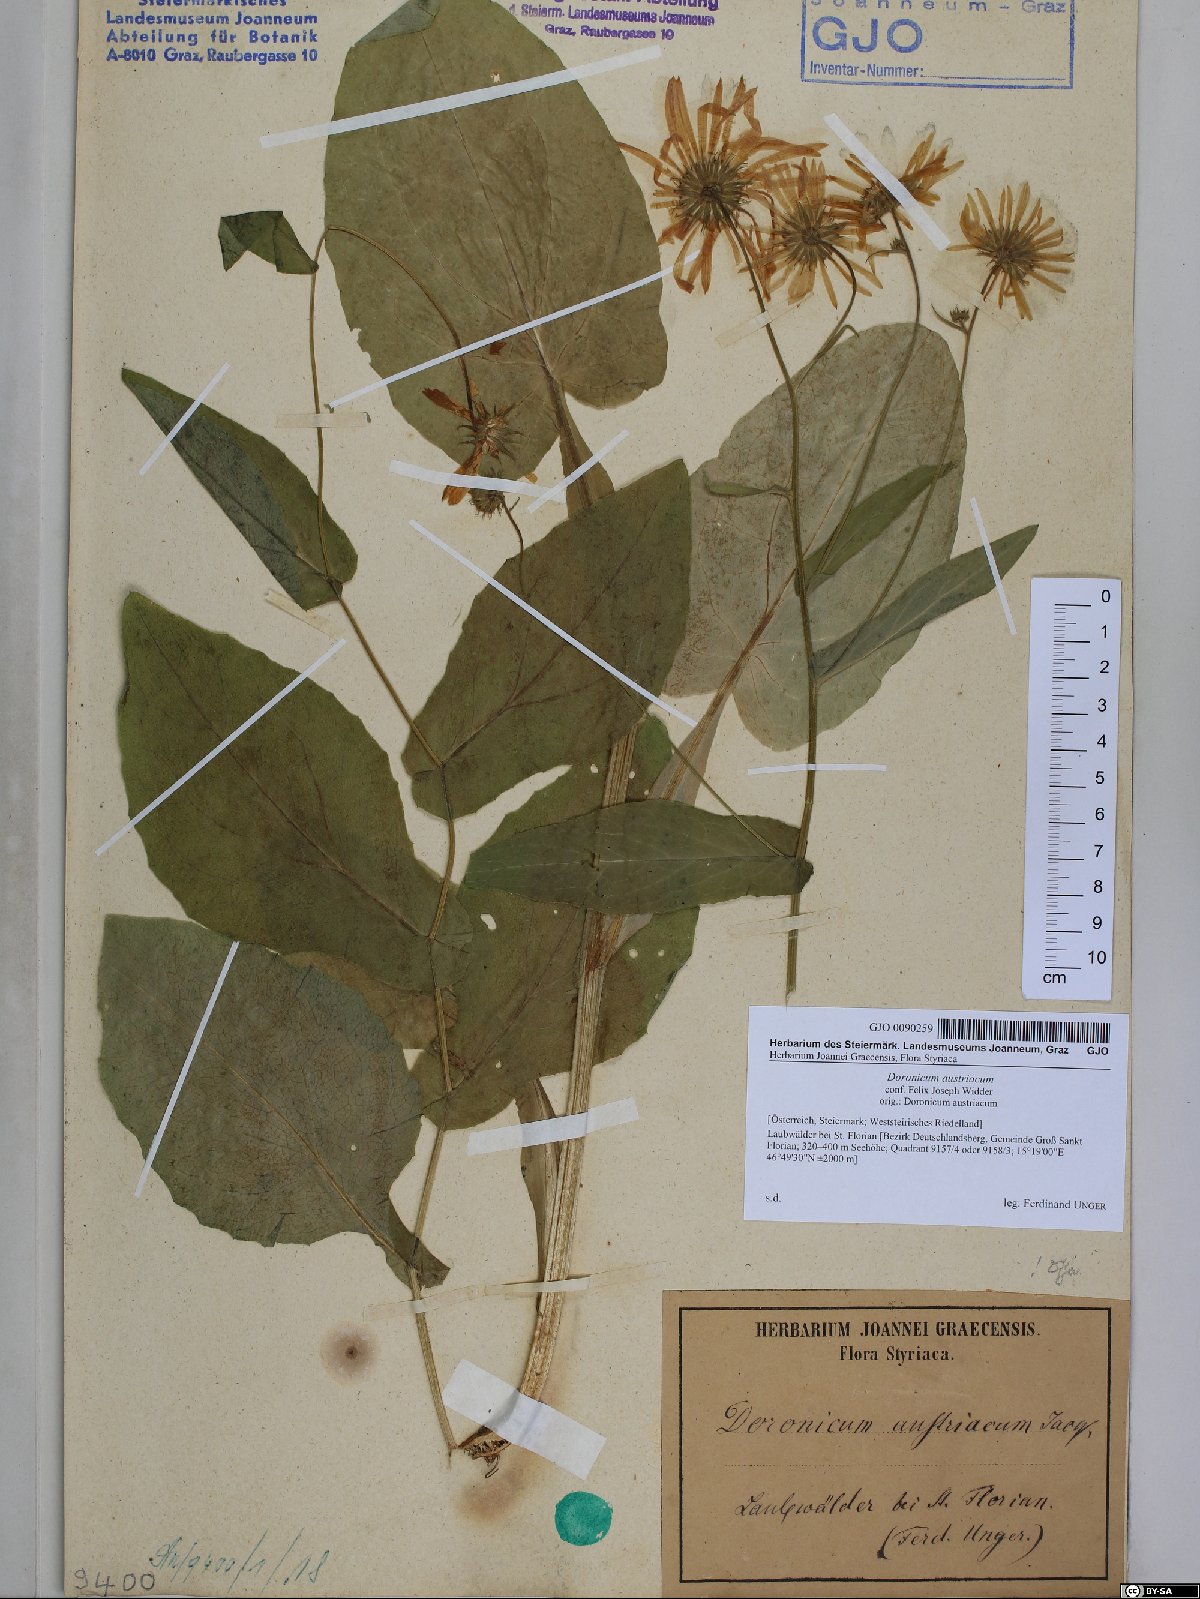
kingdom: Plantae
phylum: Tracheophyta
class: Magnoliopsida
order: Asterales
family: Asteraceae
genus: Doronicum
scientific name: Doronicum austriacum
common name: Austrian leopard's-bane
